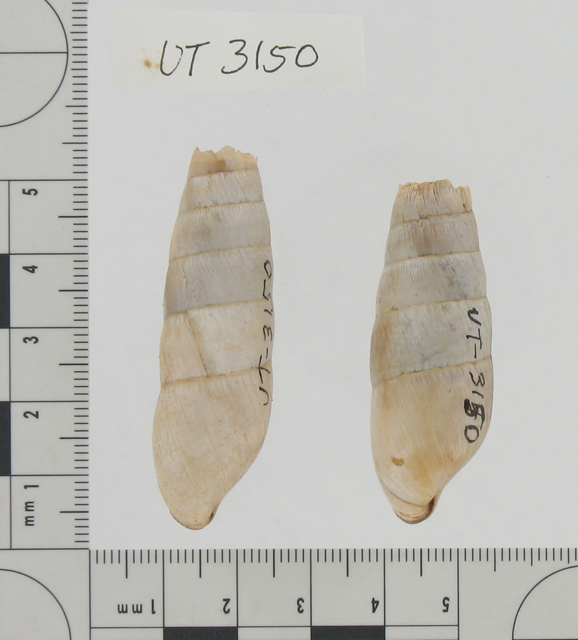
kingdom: Animalia
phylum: Mollusca
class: Gastropoda
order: Stylommatophora
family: Achatinidae
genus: Rumina
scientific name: Rumina decollata
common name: Decollate snail
